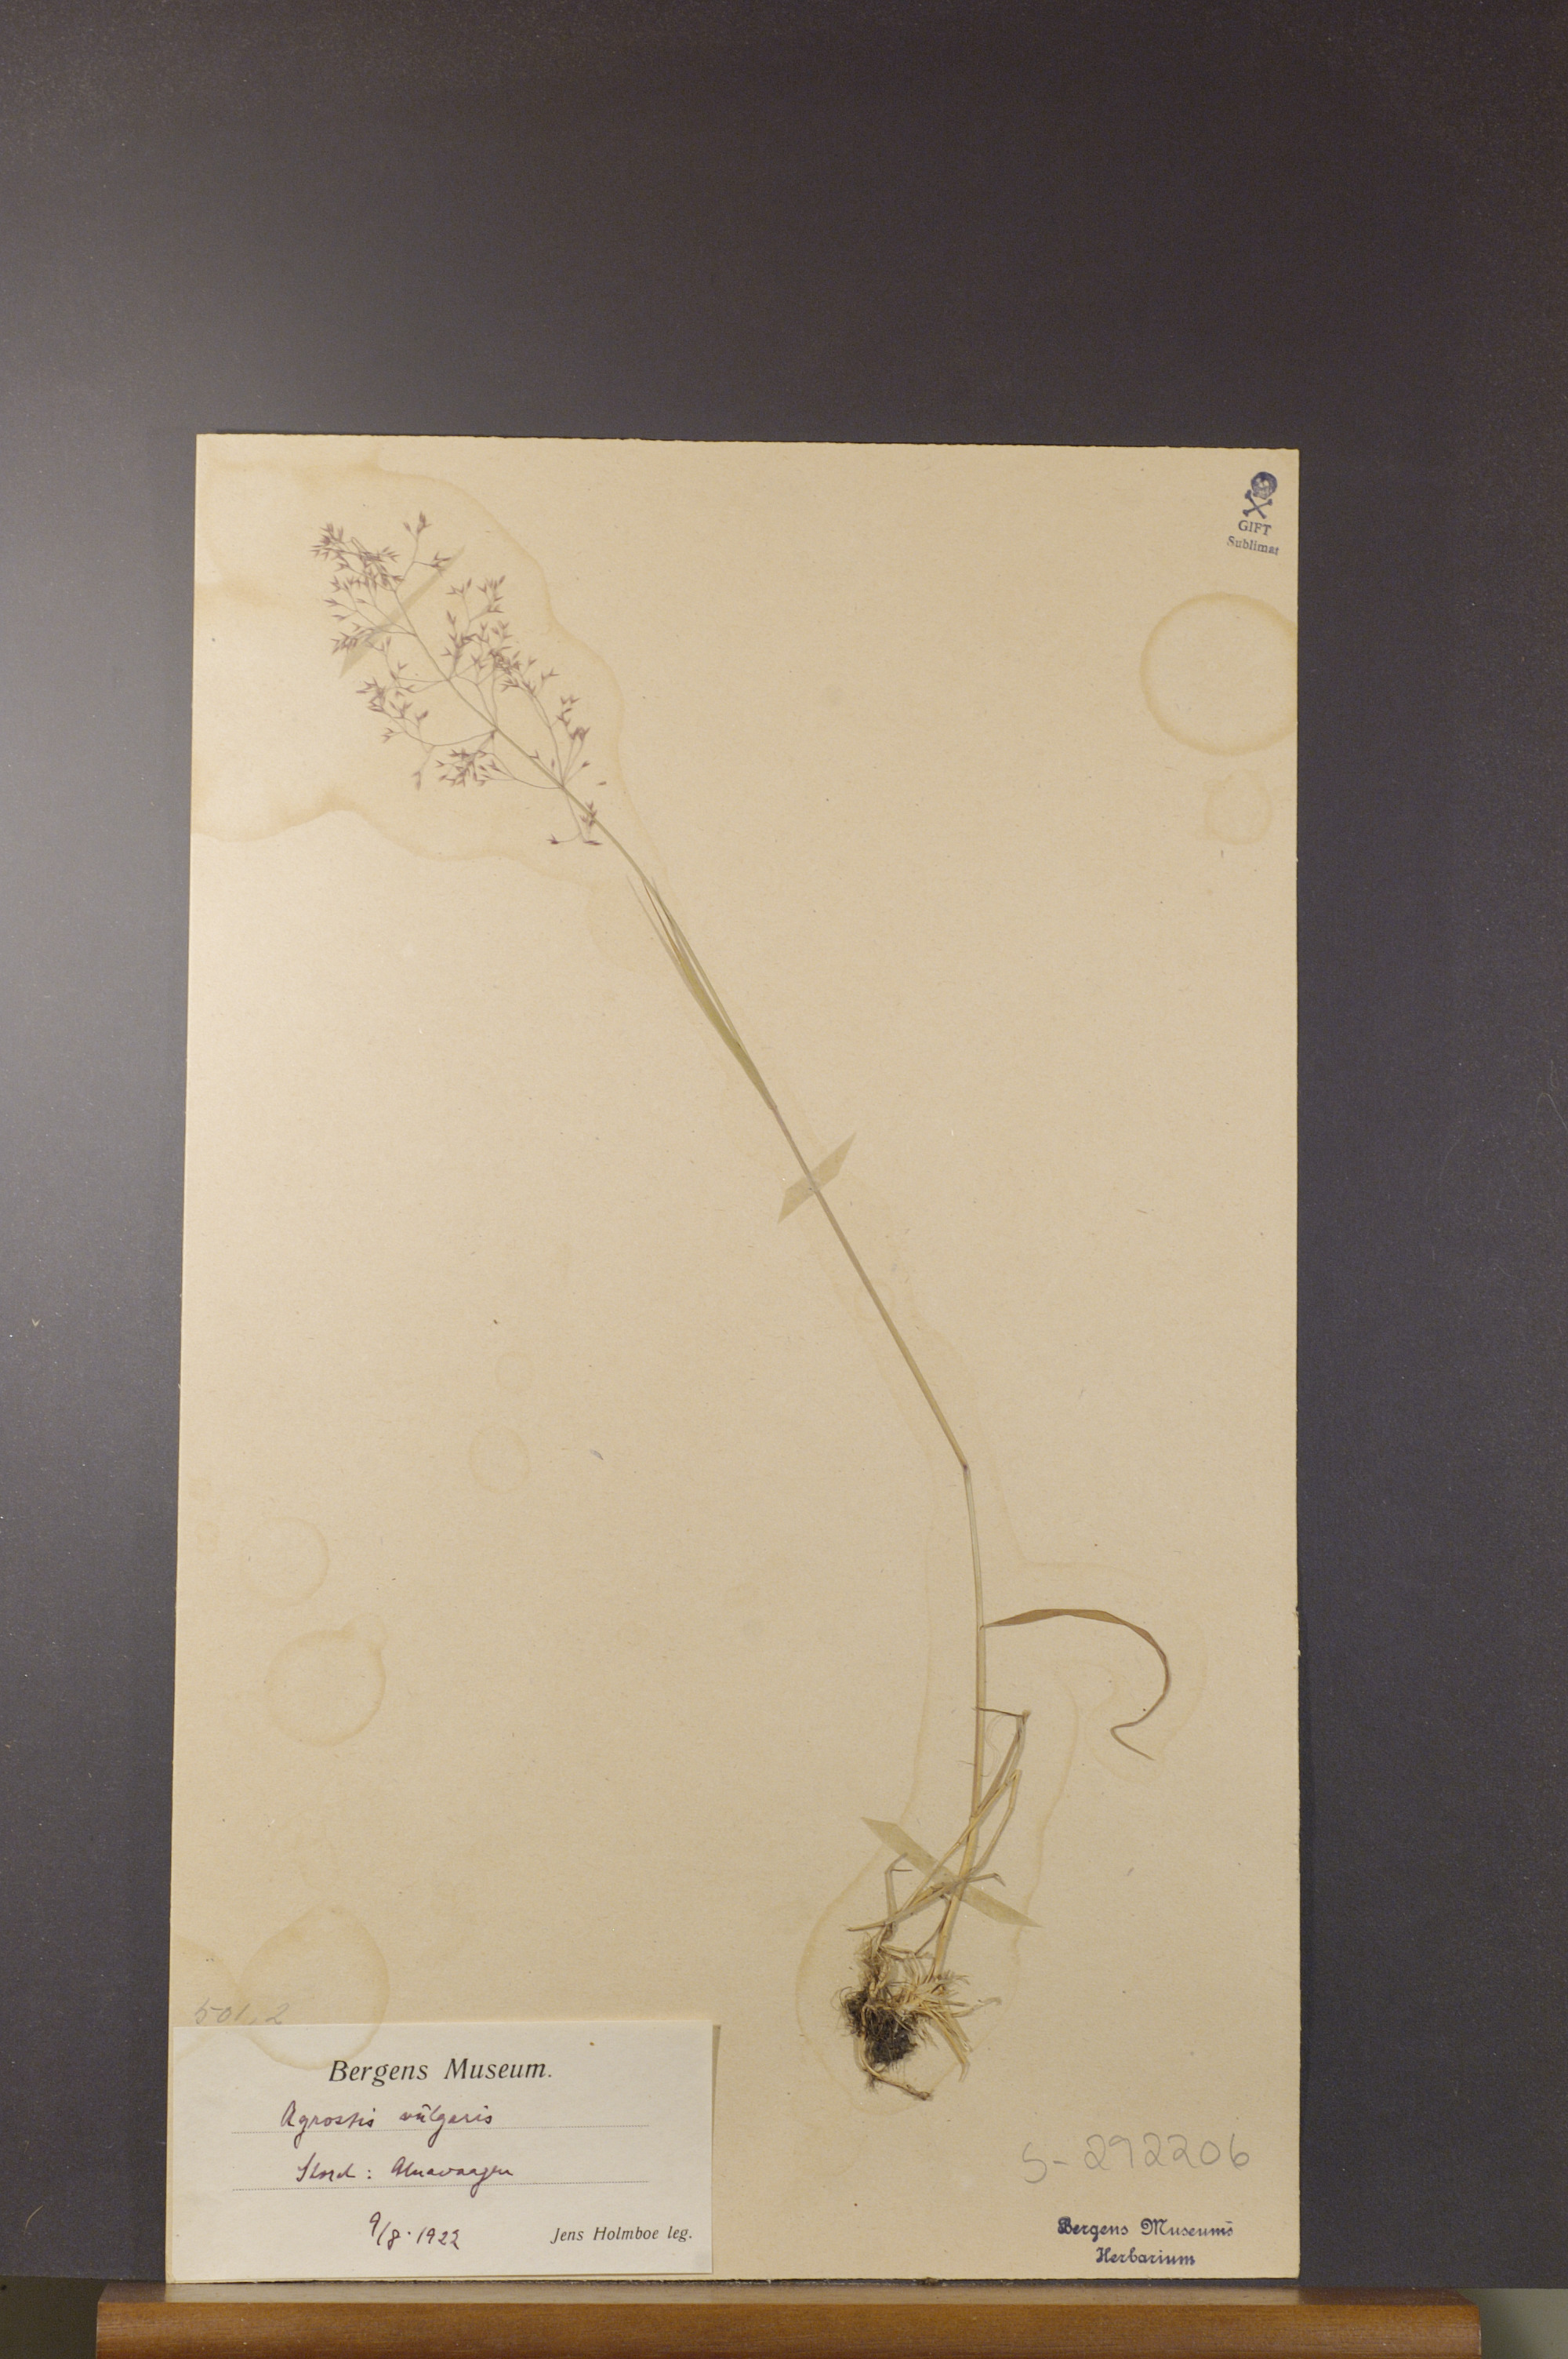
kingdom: Plantae
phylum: Tracheophyta
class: Liliopsida
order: Poales
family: Poaceae
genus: Agrostis
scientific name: Agrostis capillaris
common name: Colonial bentgrass
